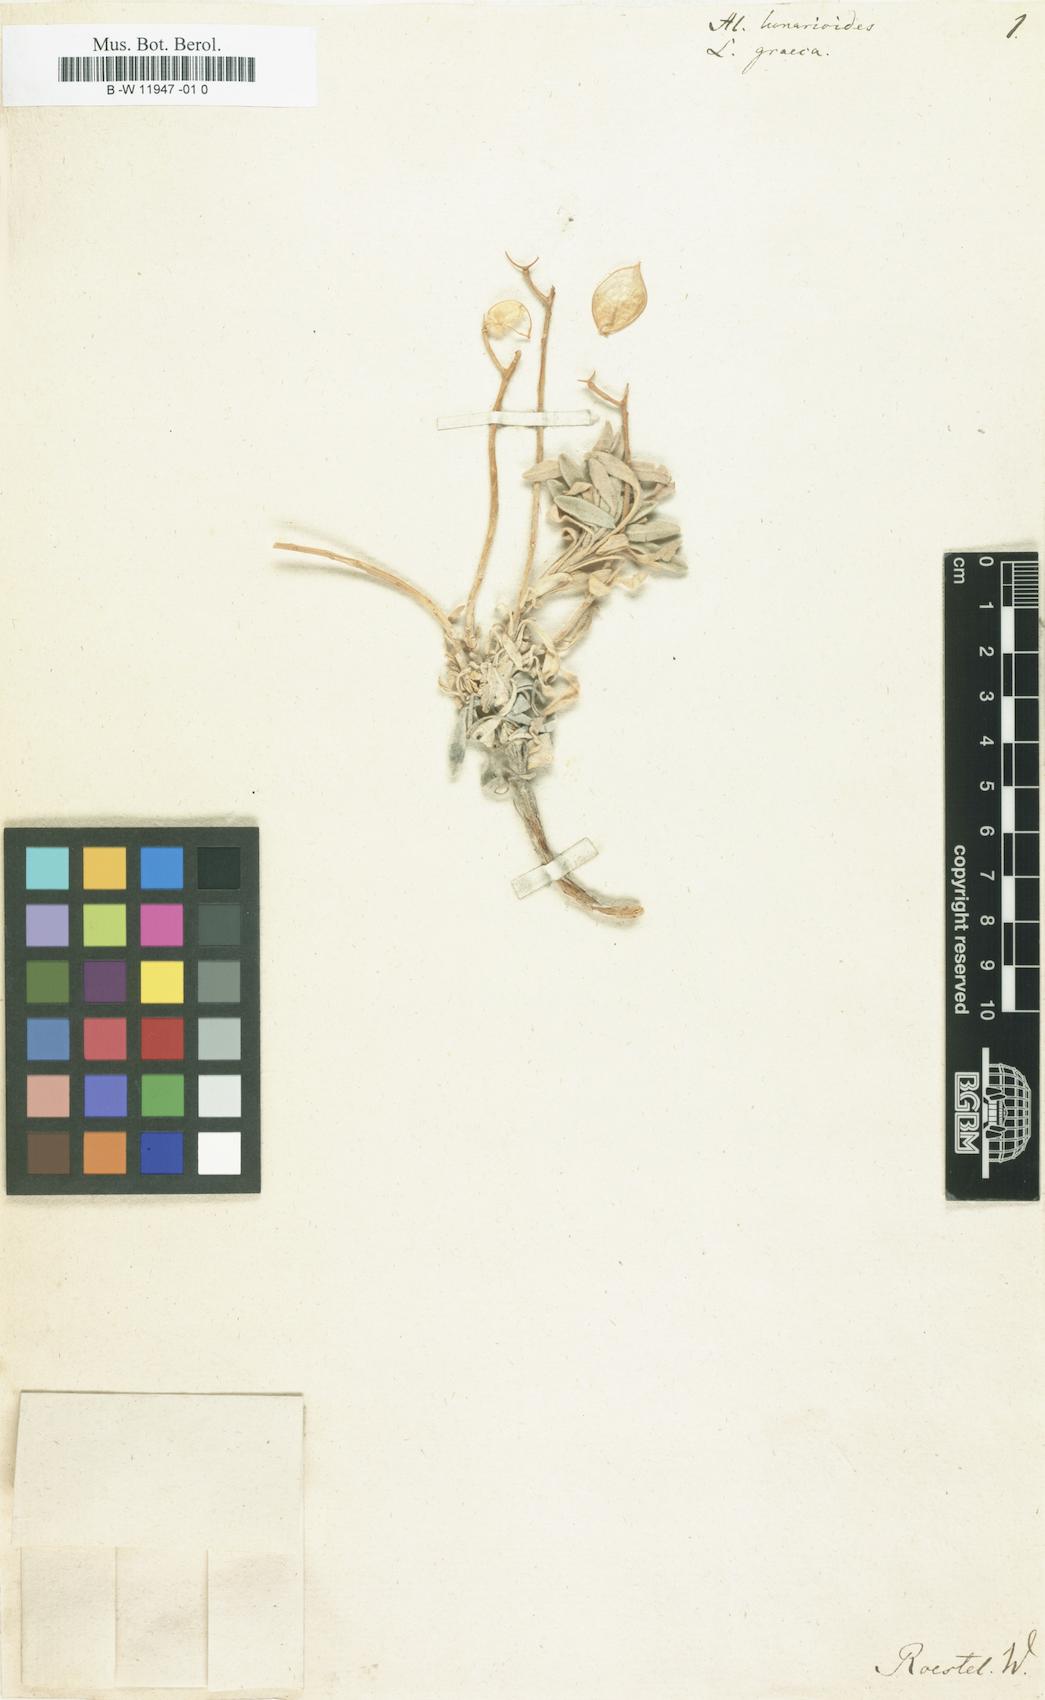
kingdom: Plantae
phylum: Tracheophyta
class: Magnoliopsida
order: Brassicales
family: Brassicaceae
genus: Acuston
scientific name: Acuston perenne
